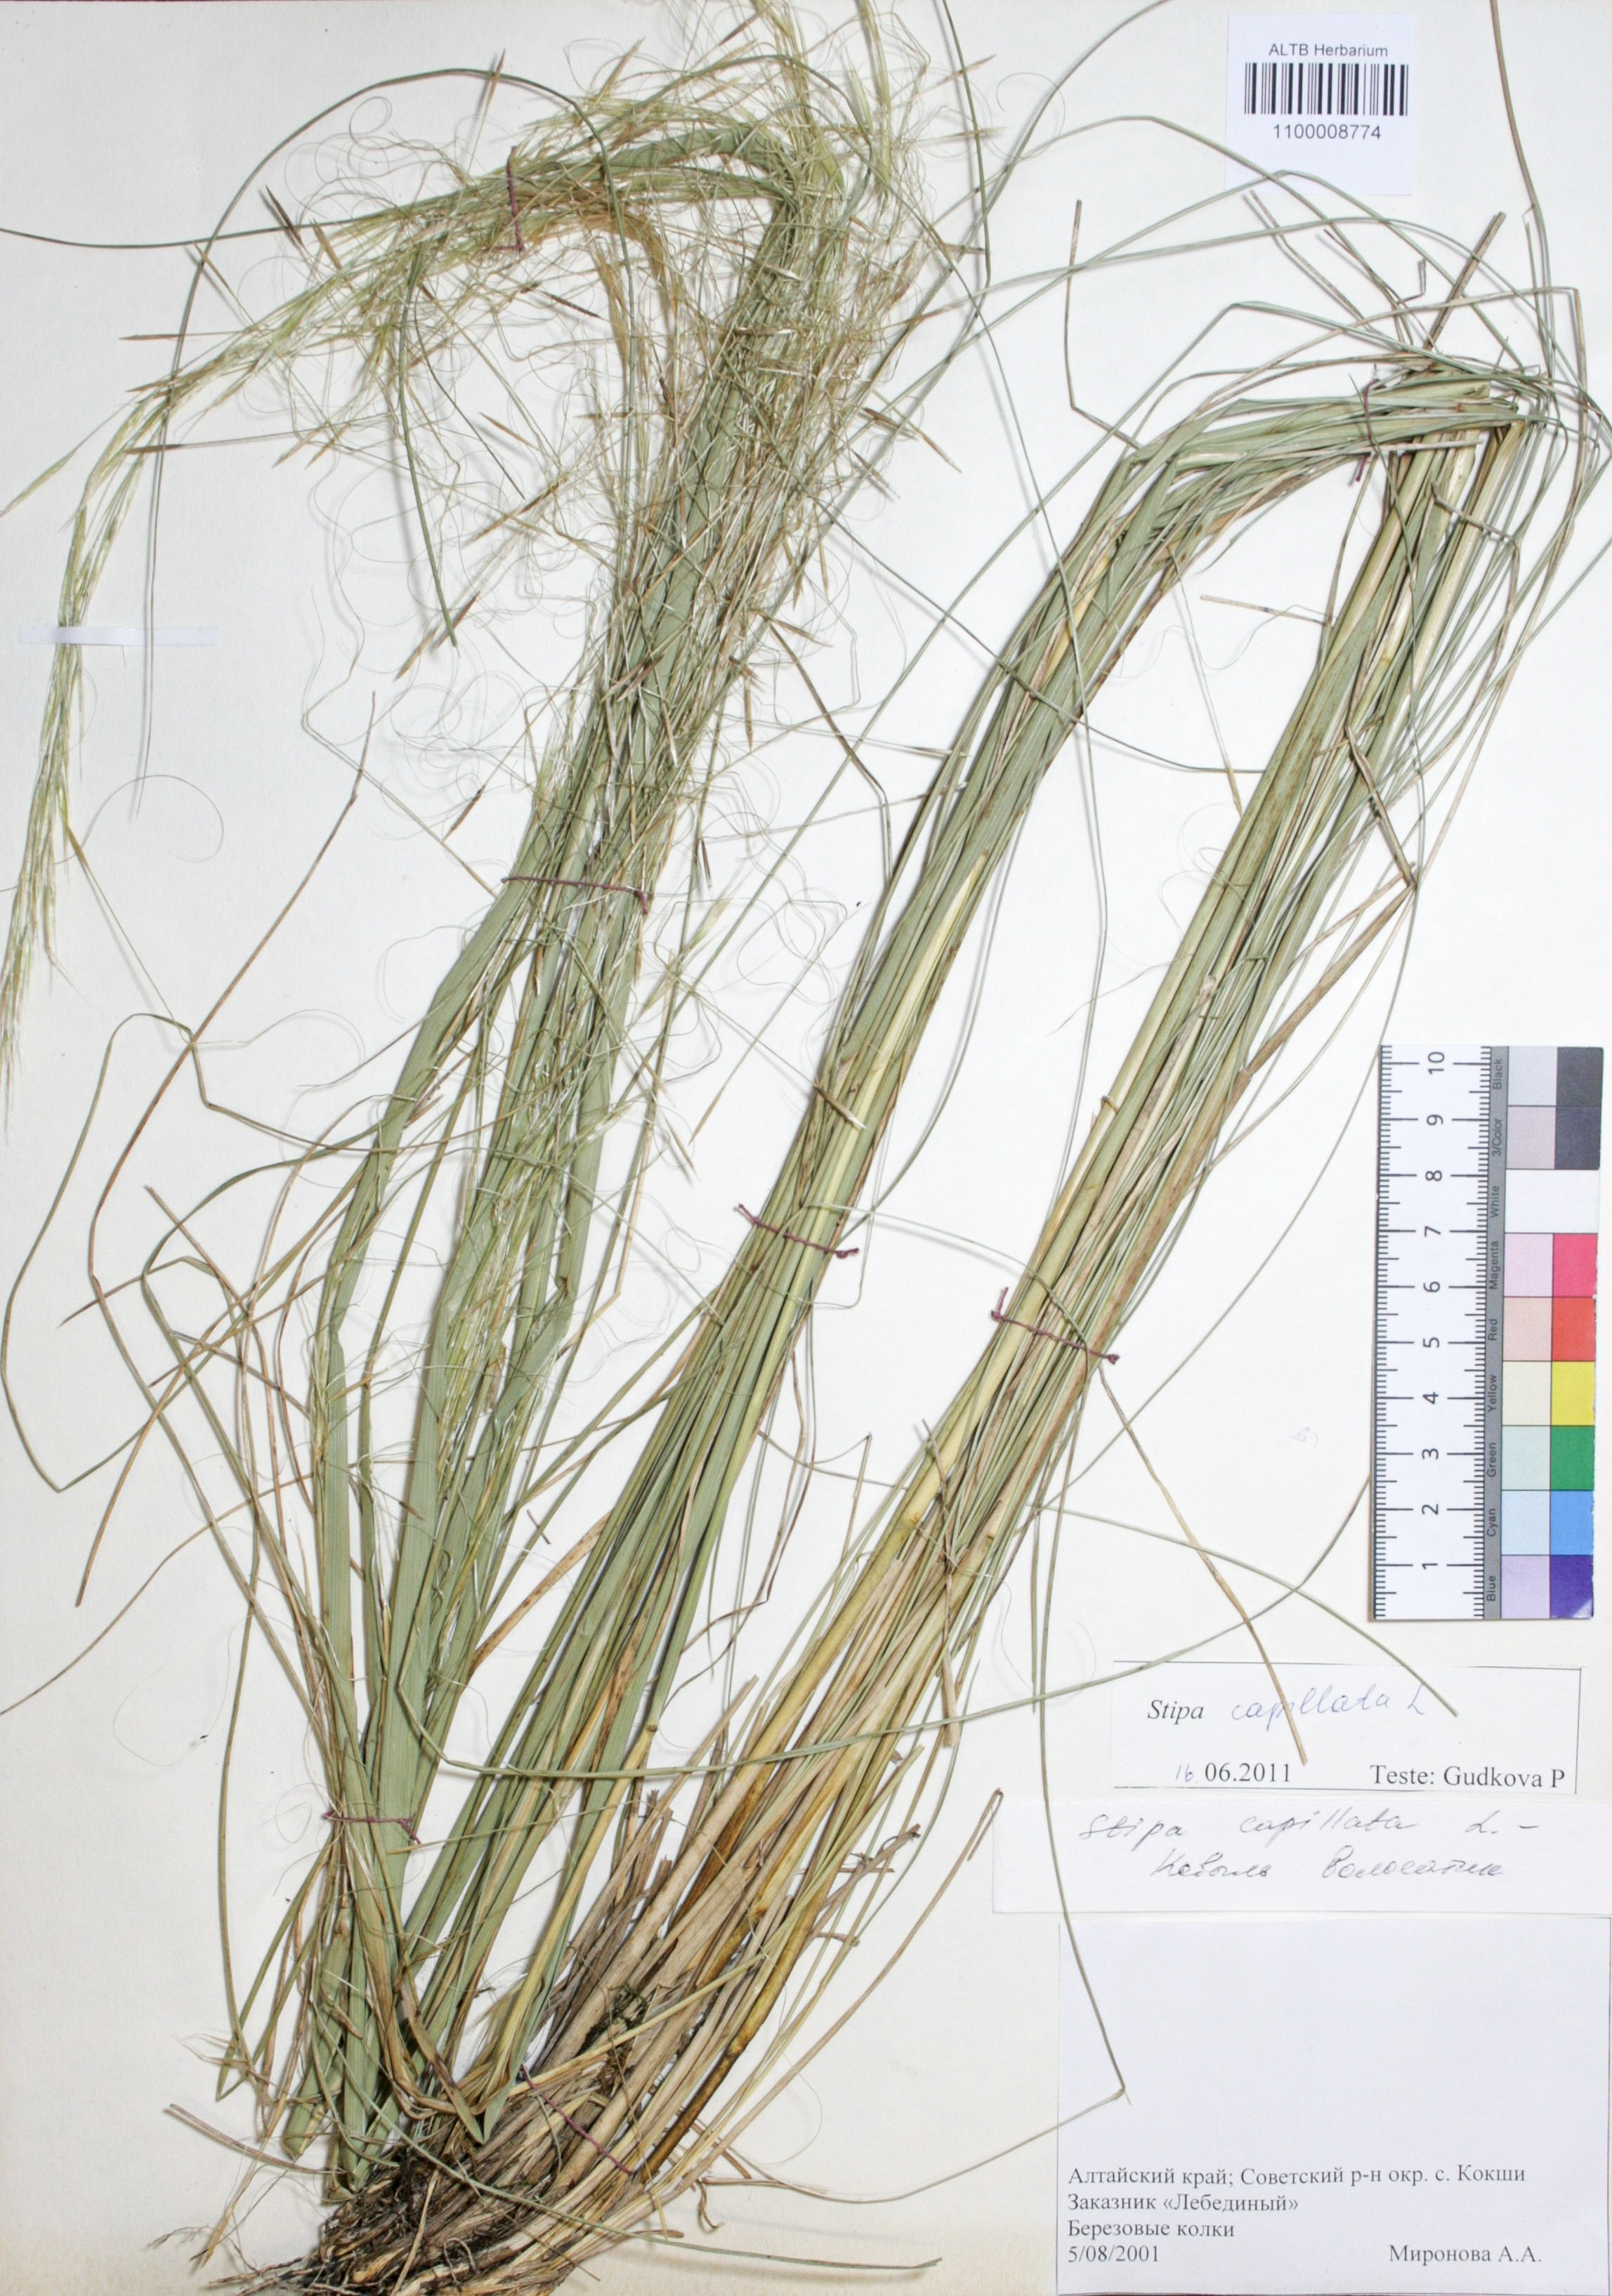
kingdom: Plantae
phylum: Tracheophyta
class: Liliopsida
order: Poales
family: Poaceae
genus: Stipa
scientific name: Stipa capillata
